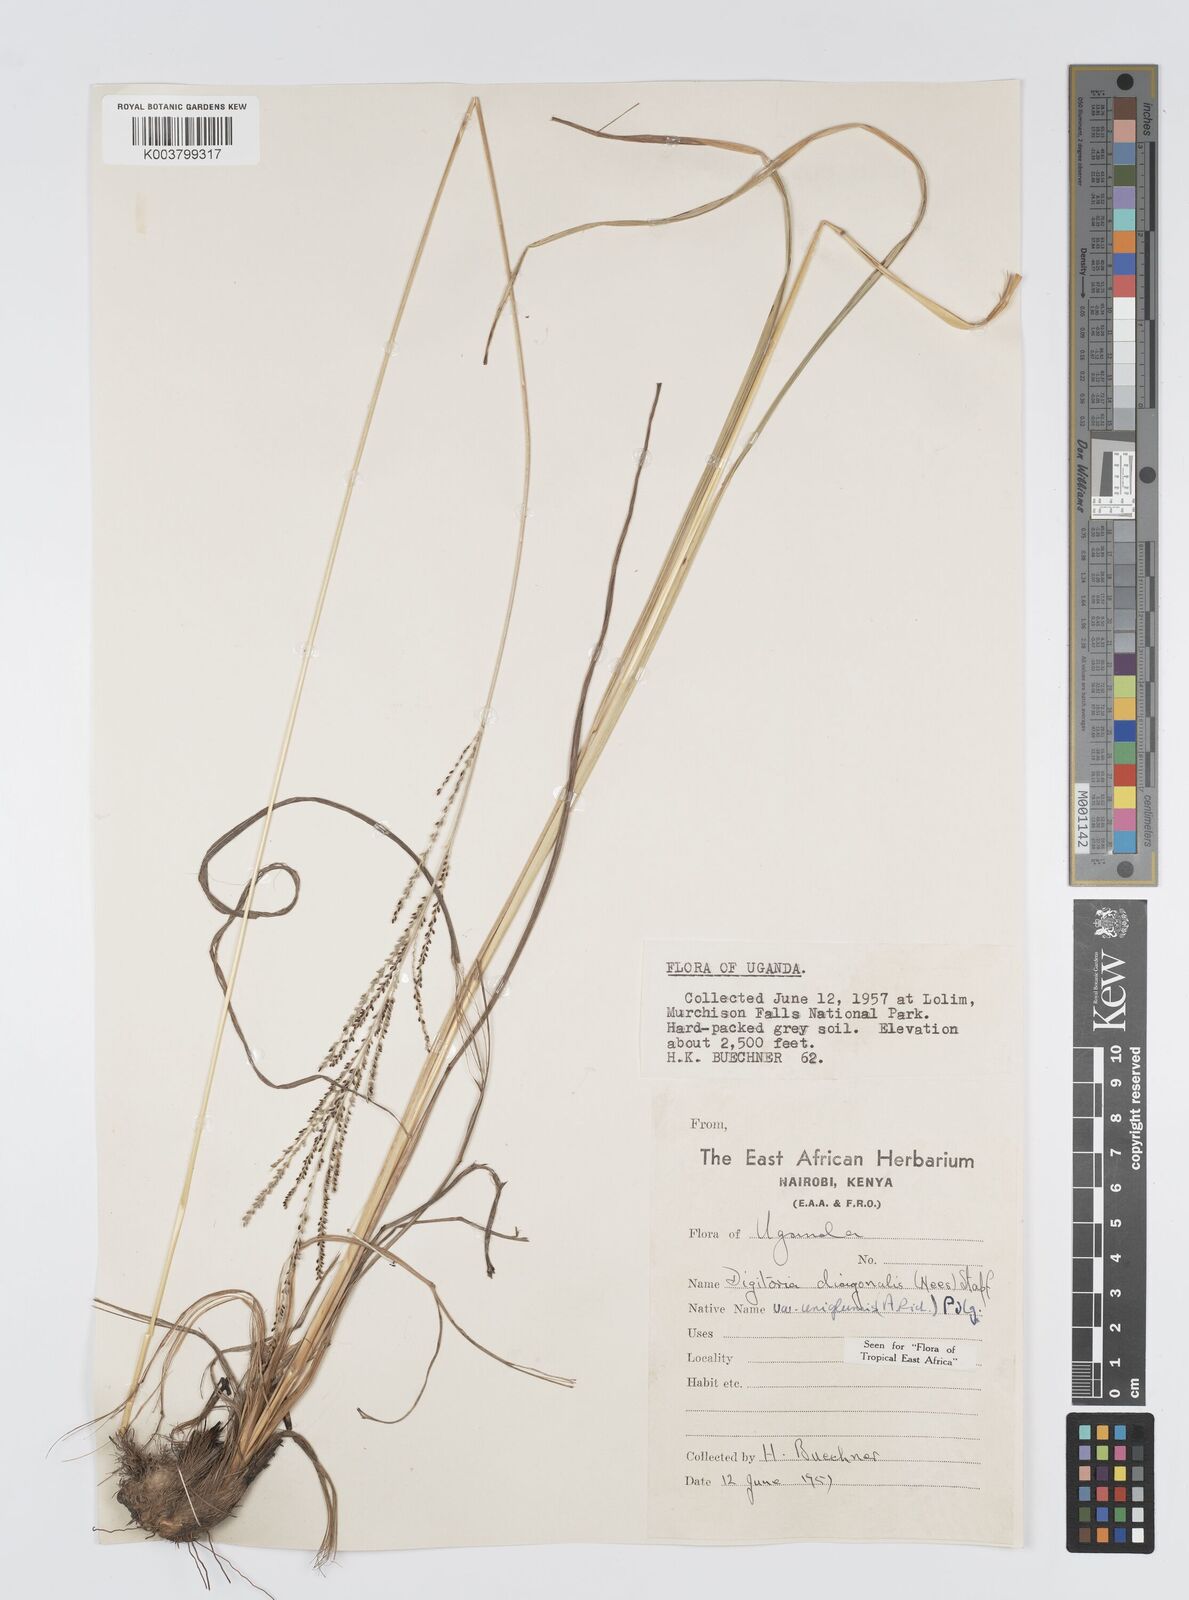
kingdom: Plantae
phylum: Tracheophyta
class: Liliopsida
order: Poales
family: Poaceae
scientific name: Poaceae
